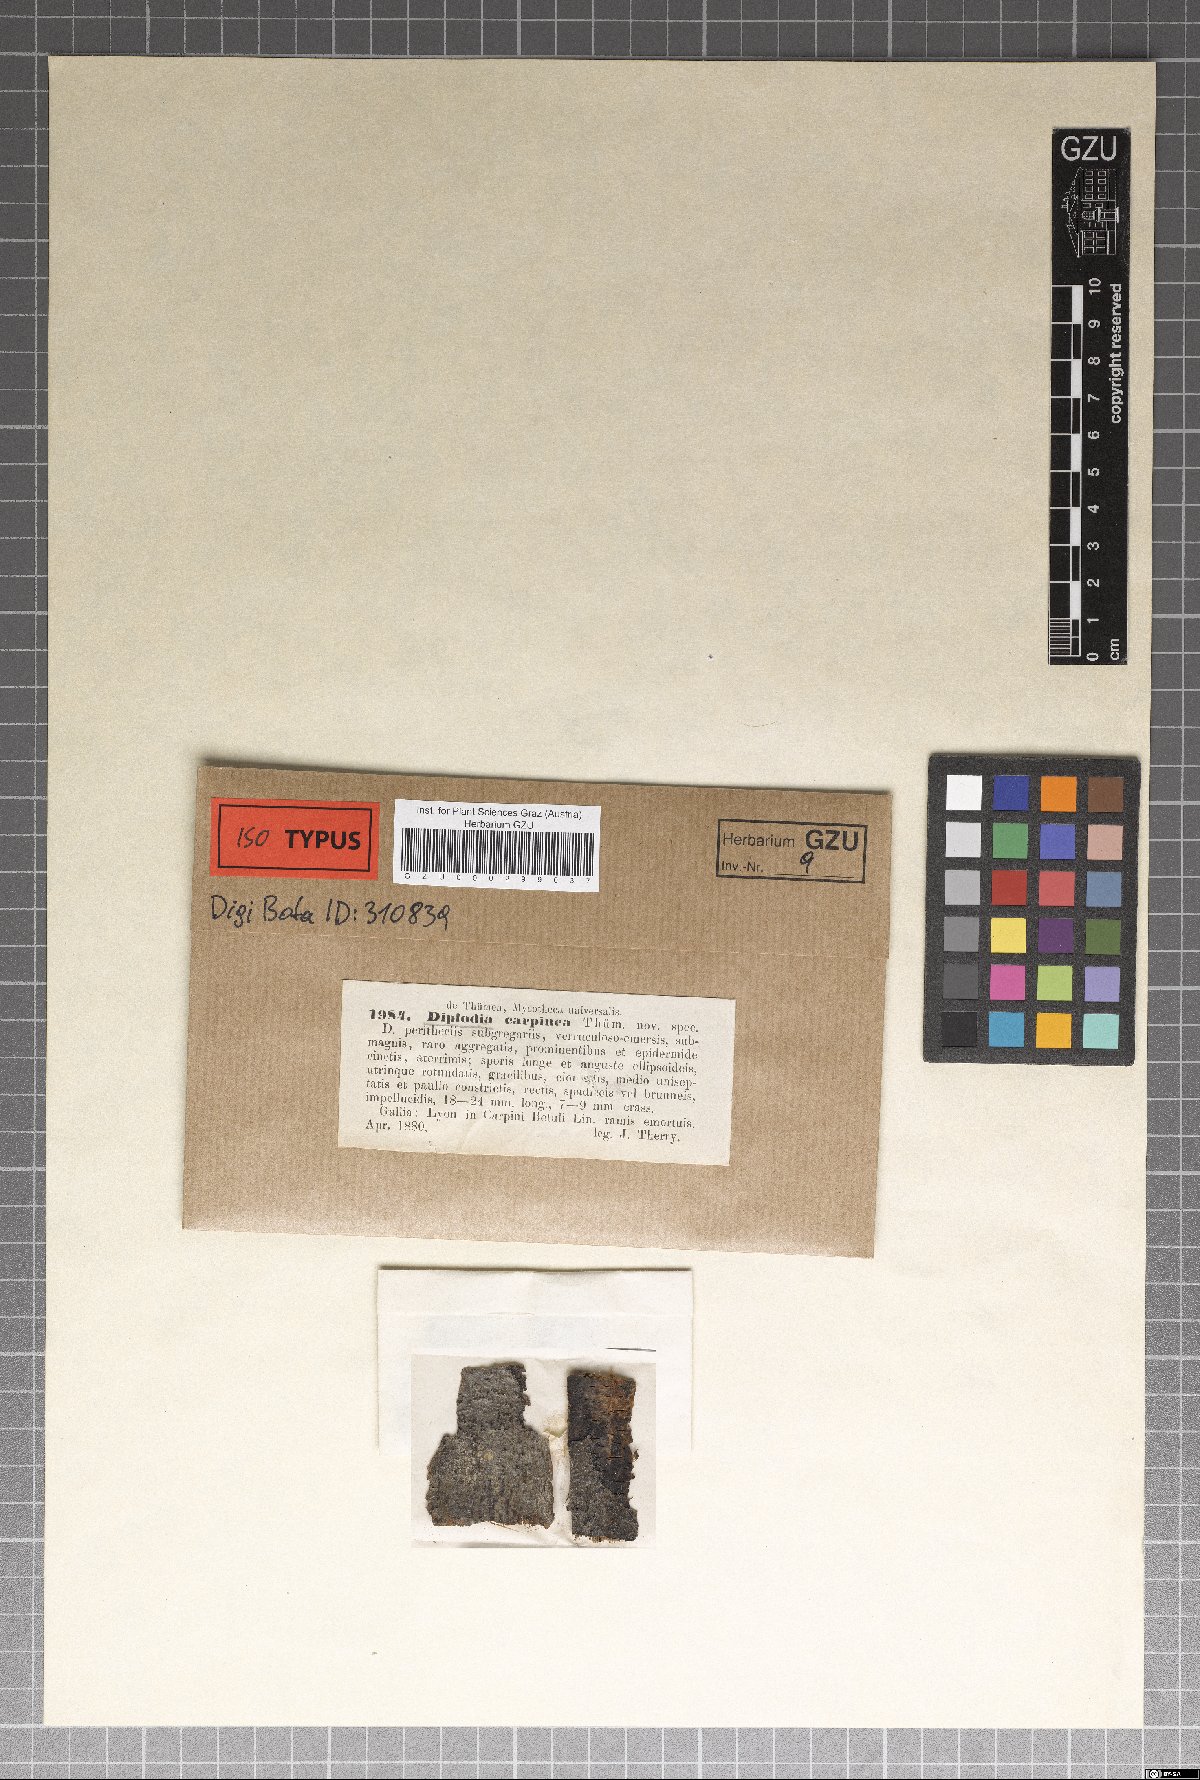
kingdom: Fungi
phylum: Ascomycota
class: Dothideomycetes
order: Botryosphaeriales
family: Botryosphaeriaceae
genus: Diplodia
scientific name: Diplodia tiliae
